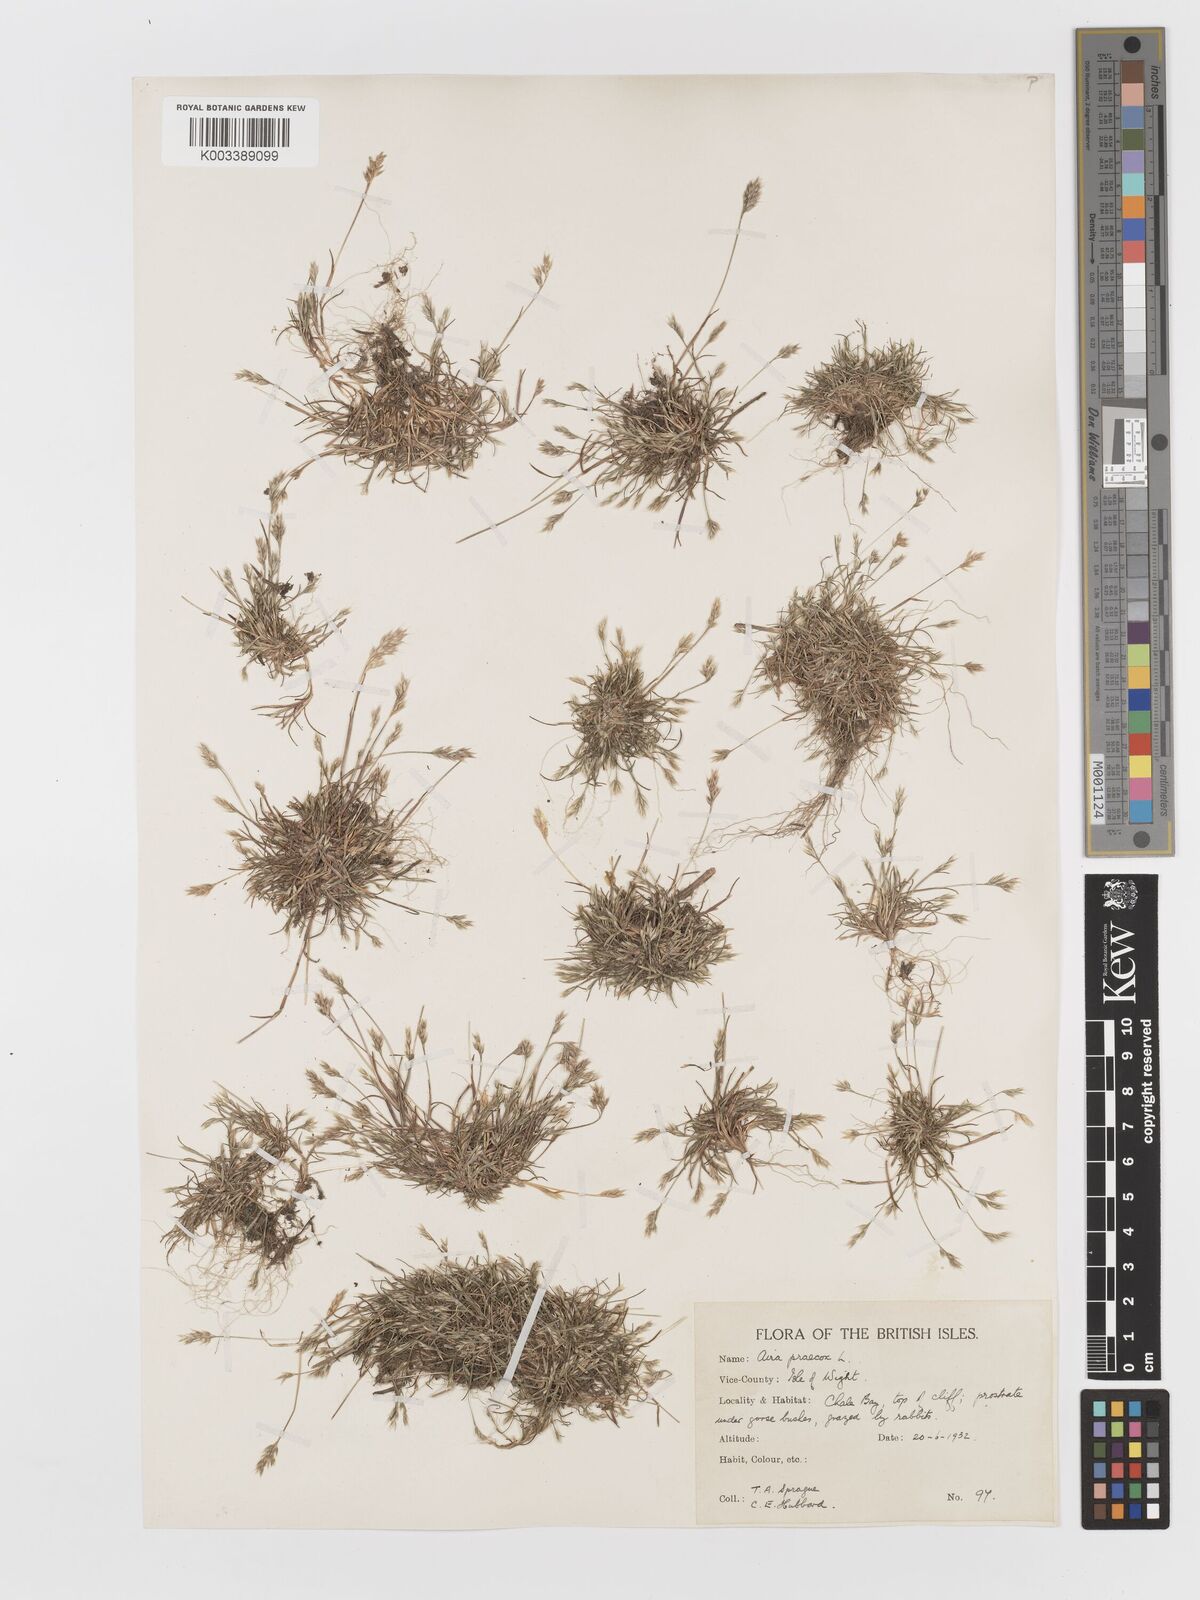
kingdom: Plantae
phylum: Tracheophyta
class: Liliopsida
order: Poales
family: Poaceae
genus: Aira
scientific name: Aira praecox
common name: Early hair-grass
